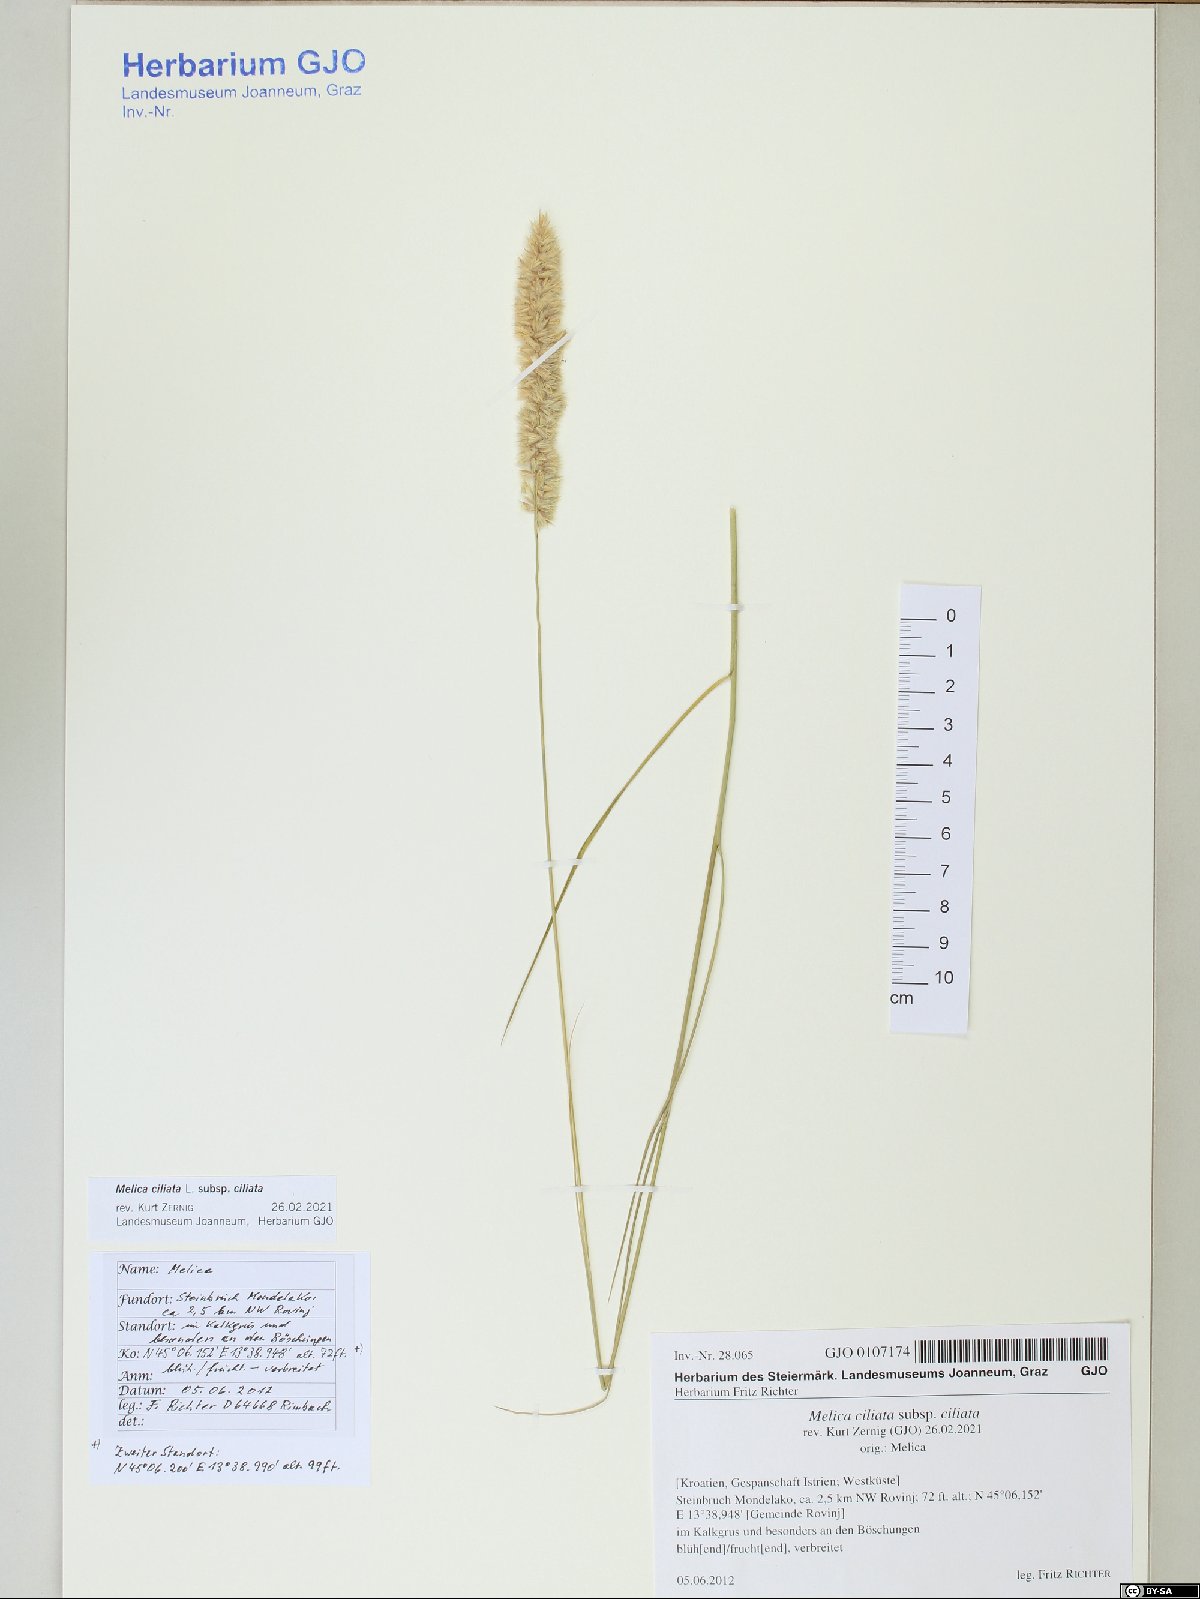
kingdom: Plantae
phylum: Tracheophyta
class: Liliopsida
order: Poales
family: Poaceae
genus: Melica
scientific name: Melica ciliata
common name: Hairy melicgrass
